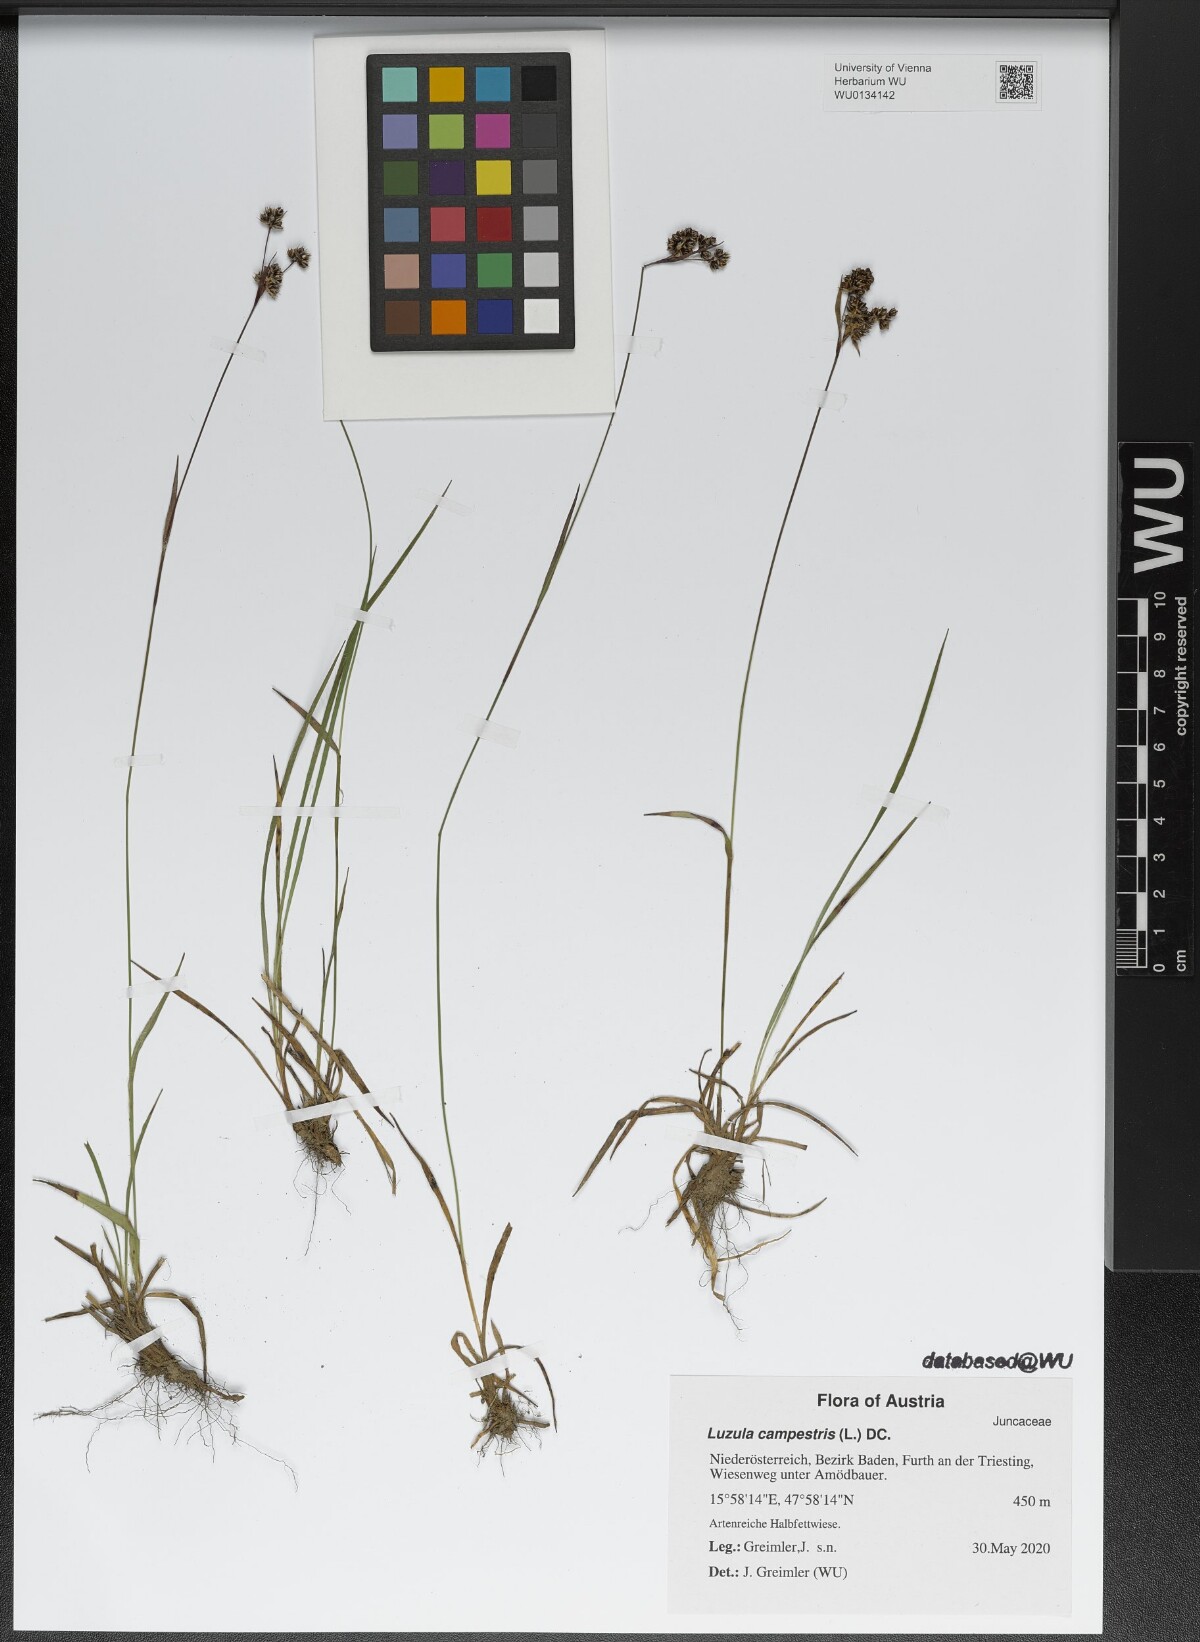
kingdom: Plantae
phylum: Tracheophyta
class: Liliopsida
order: Poales
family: Juncaceae
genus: Luzula
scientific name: Luzula campestris
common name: Field wood-rush
